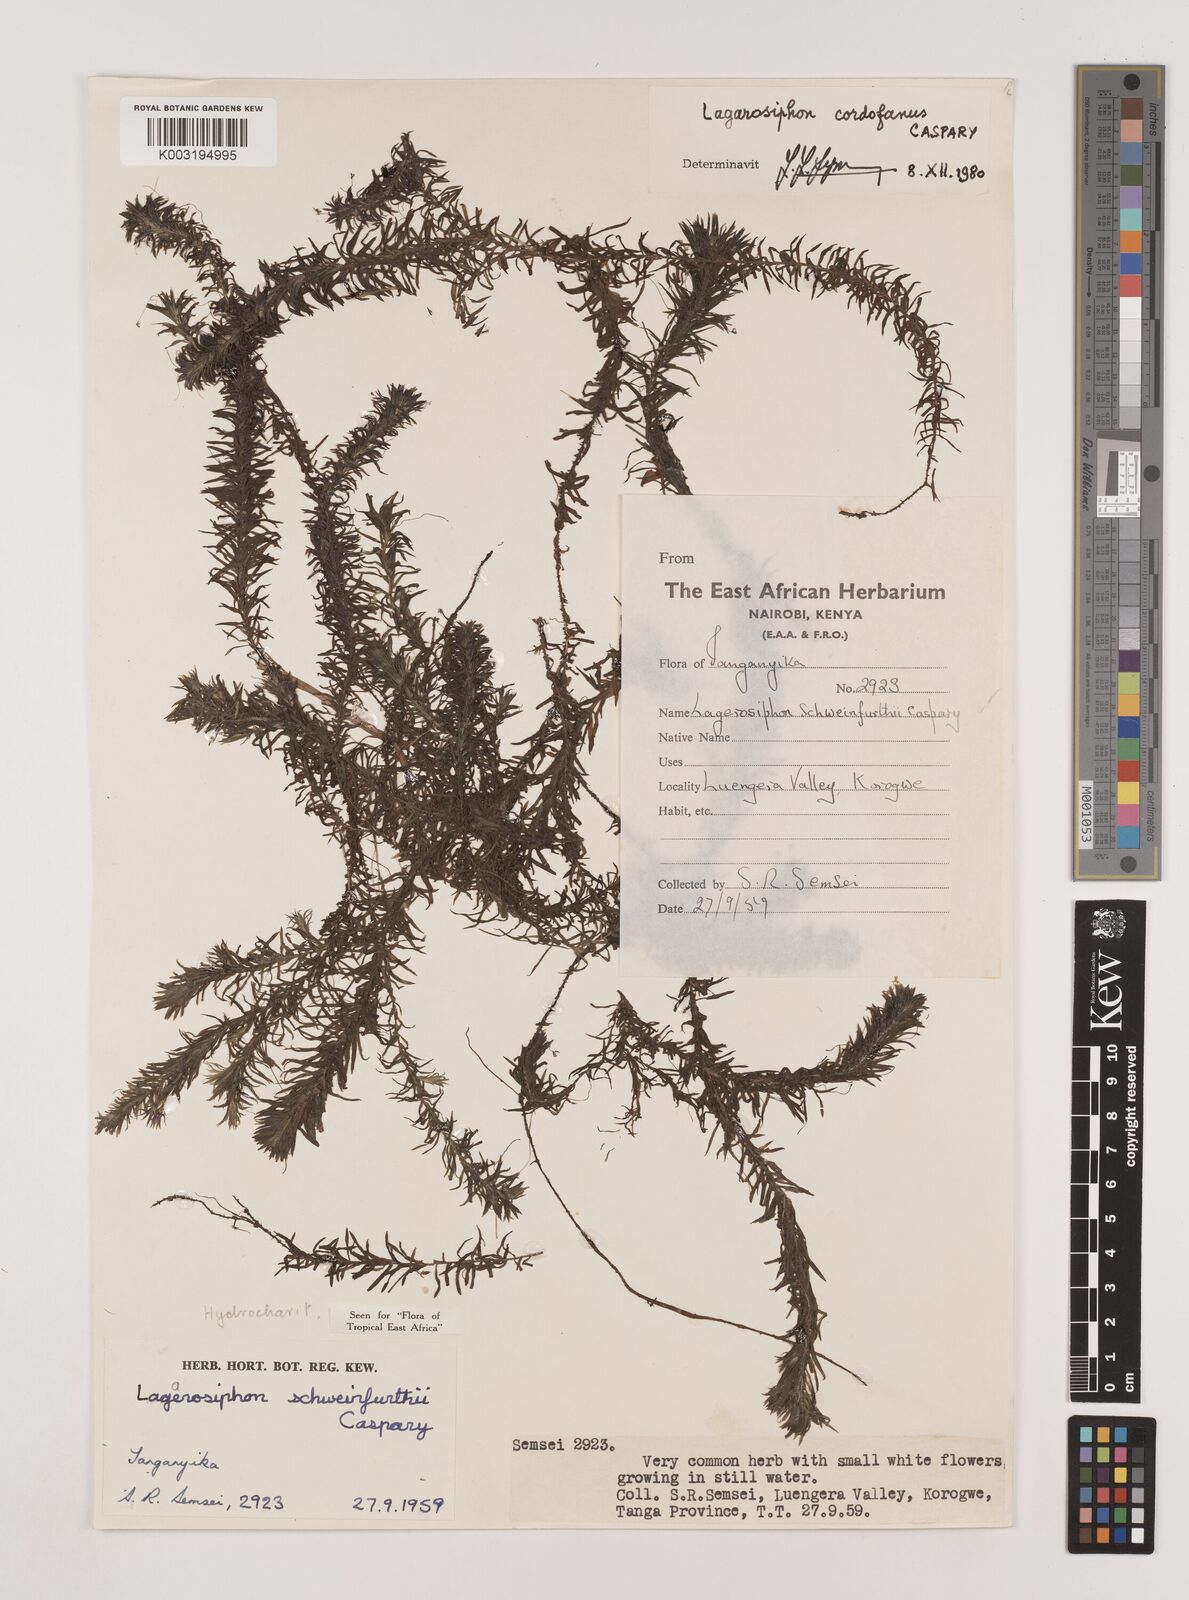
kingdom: Plantae
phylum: Tracheophyta
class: Liliopsida
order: Alismatales
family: Hydrocharitaceae
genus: Lagarosiphon
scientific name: Lagarosiphon cordofanus
